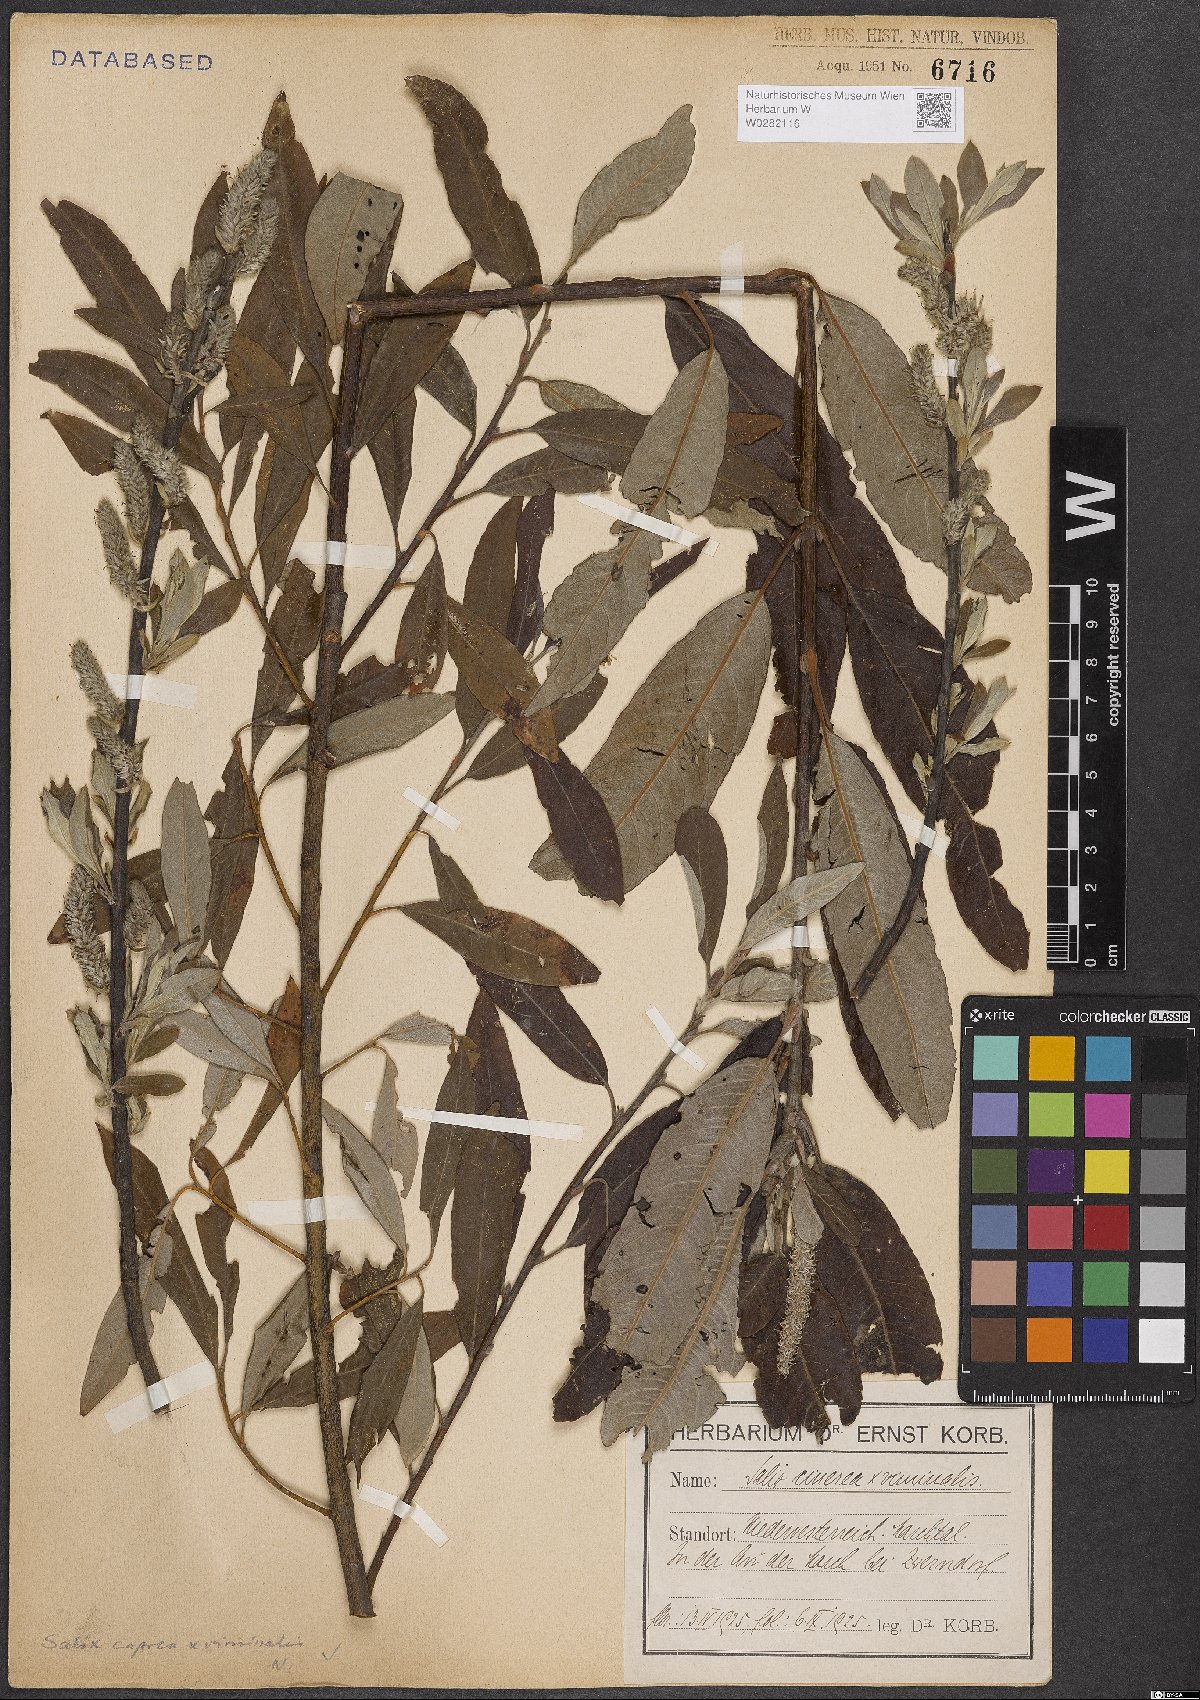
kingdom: Plantae
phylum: Tracheophyta
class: Magnoliopsida
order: Malpighiales
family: Salicaceae
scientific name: Salicaceae
